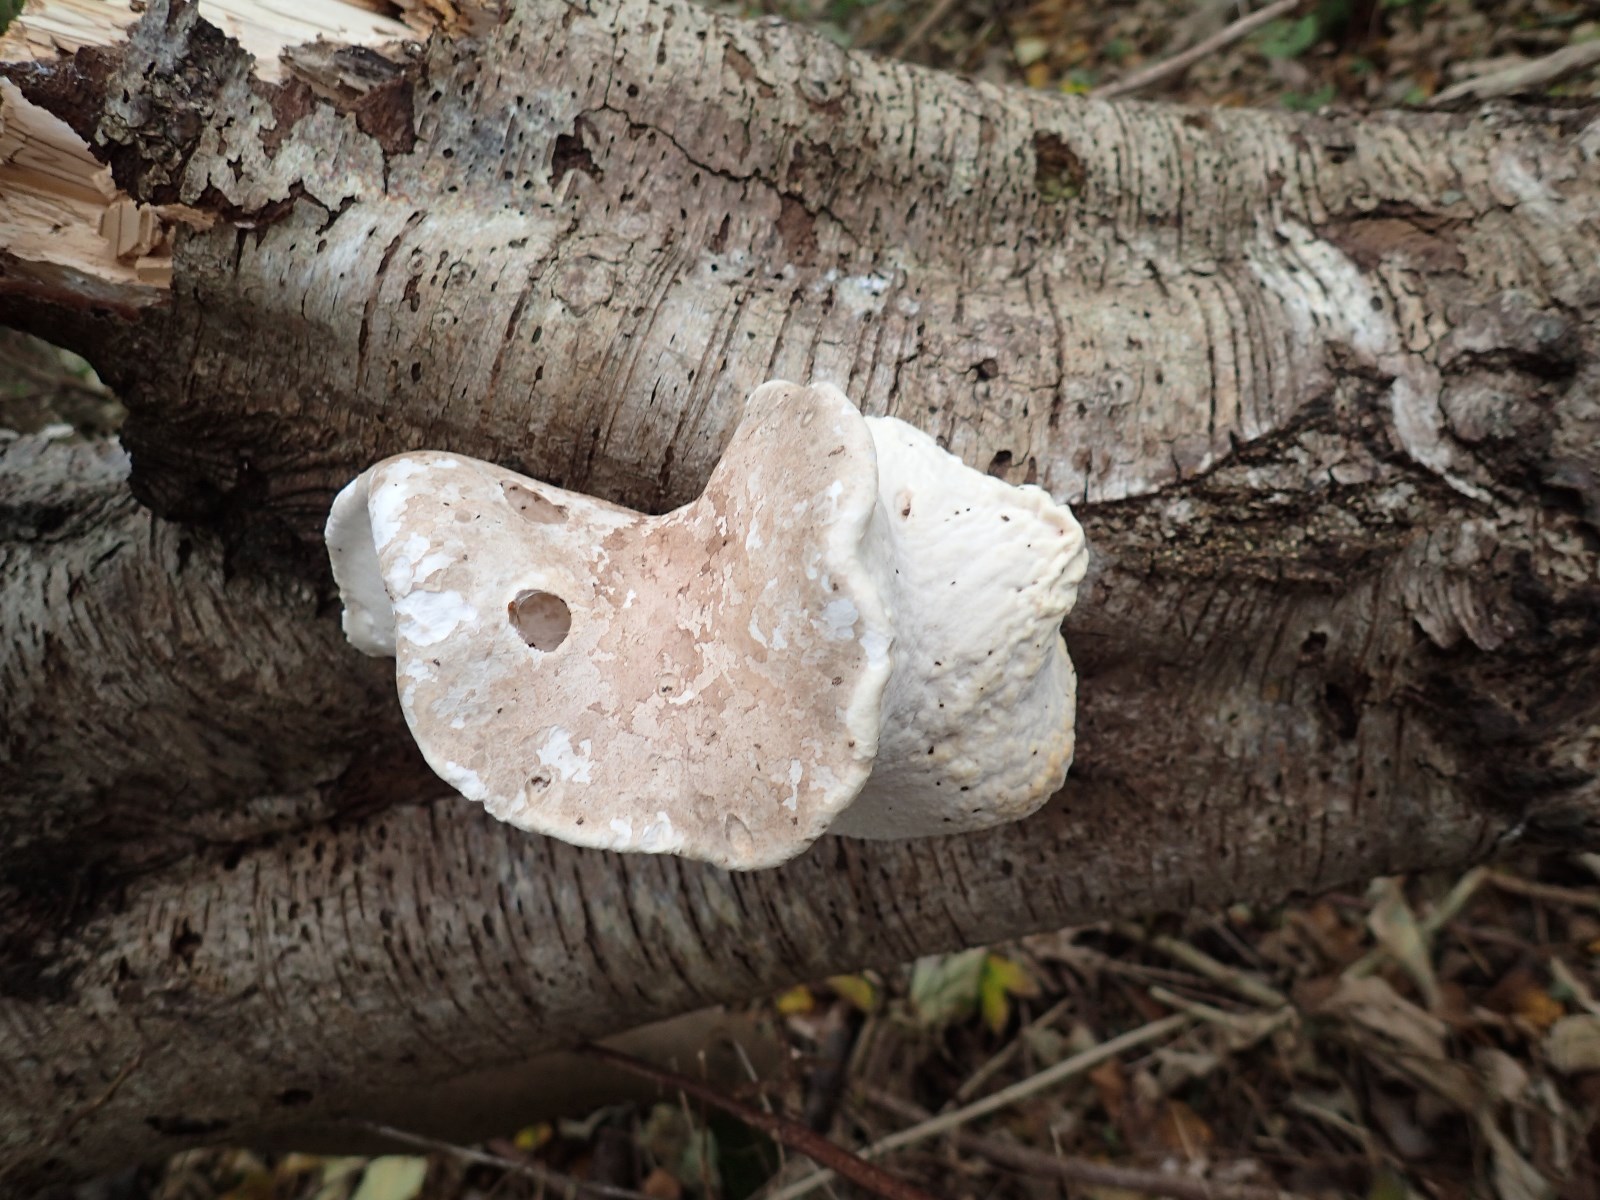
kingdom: Fungi
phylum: Basidiomycota
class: Agaricomycetes
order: Polyporales
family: Fomitopsidaceae
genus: Fomitopsis
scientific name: Fomitopsis betulina
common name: birkeporesvamp
